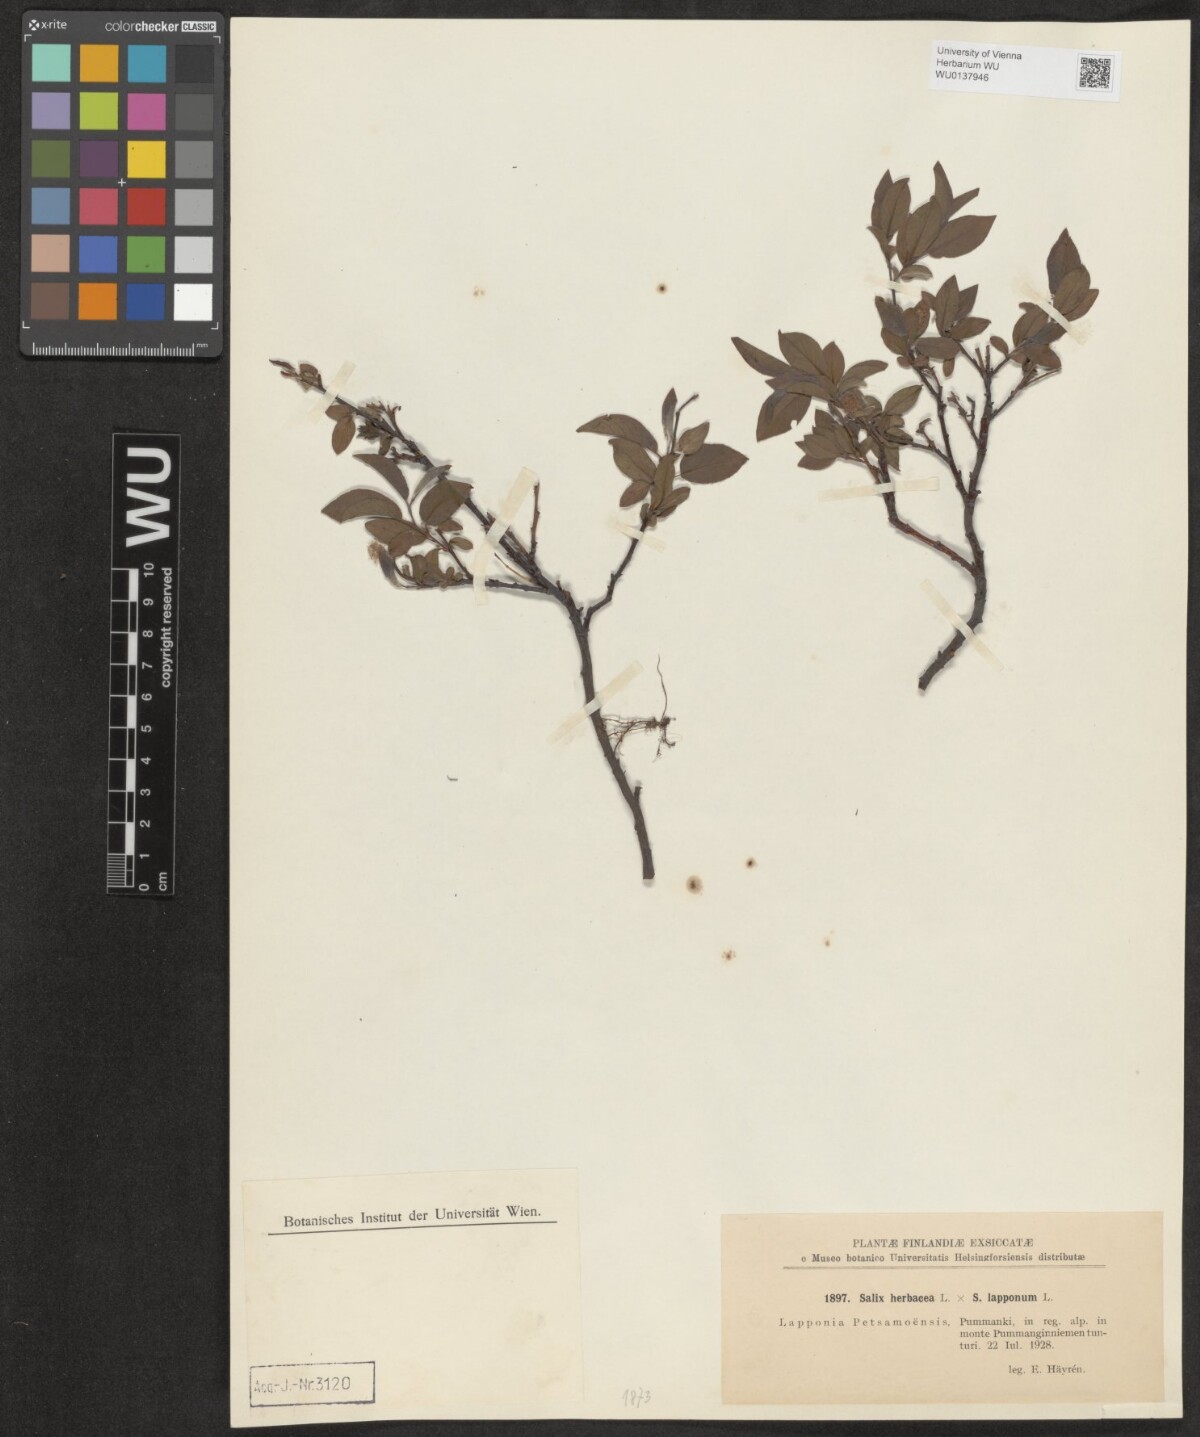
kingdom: Plantae
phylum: Tracheophyta
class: Magnoliopsida
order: Malpighiales
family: Salicaceae
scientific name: Salicaceae
